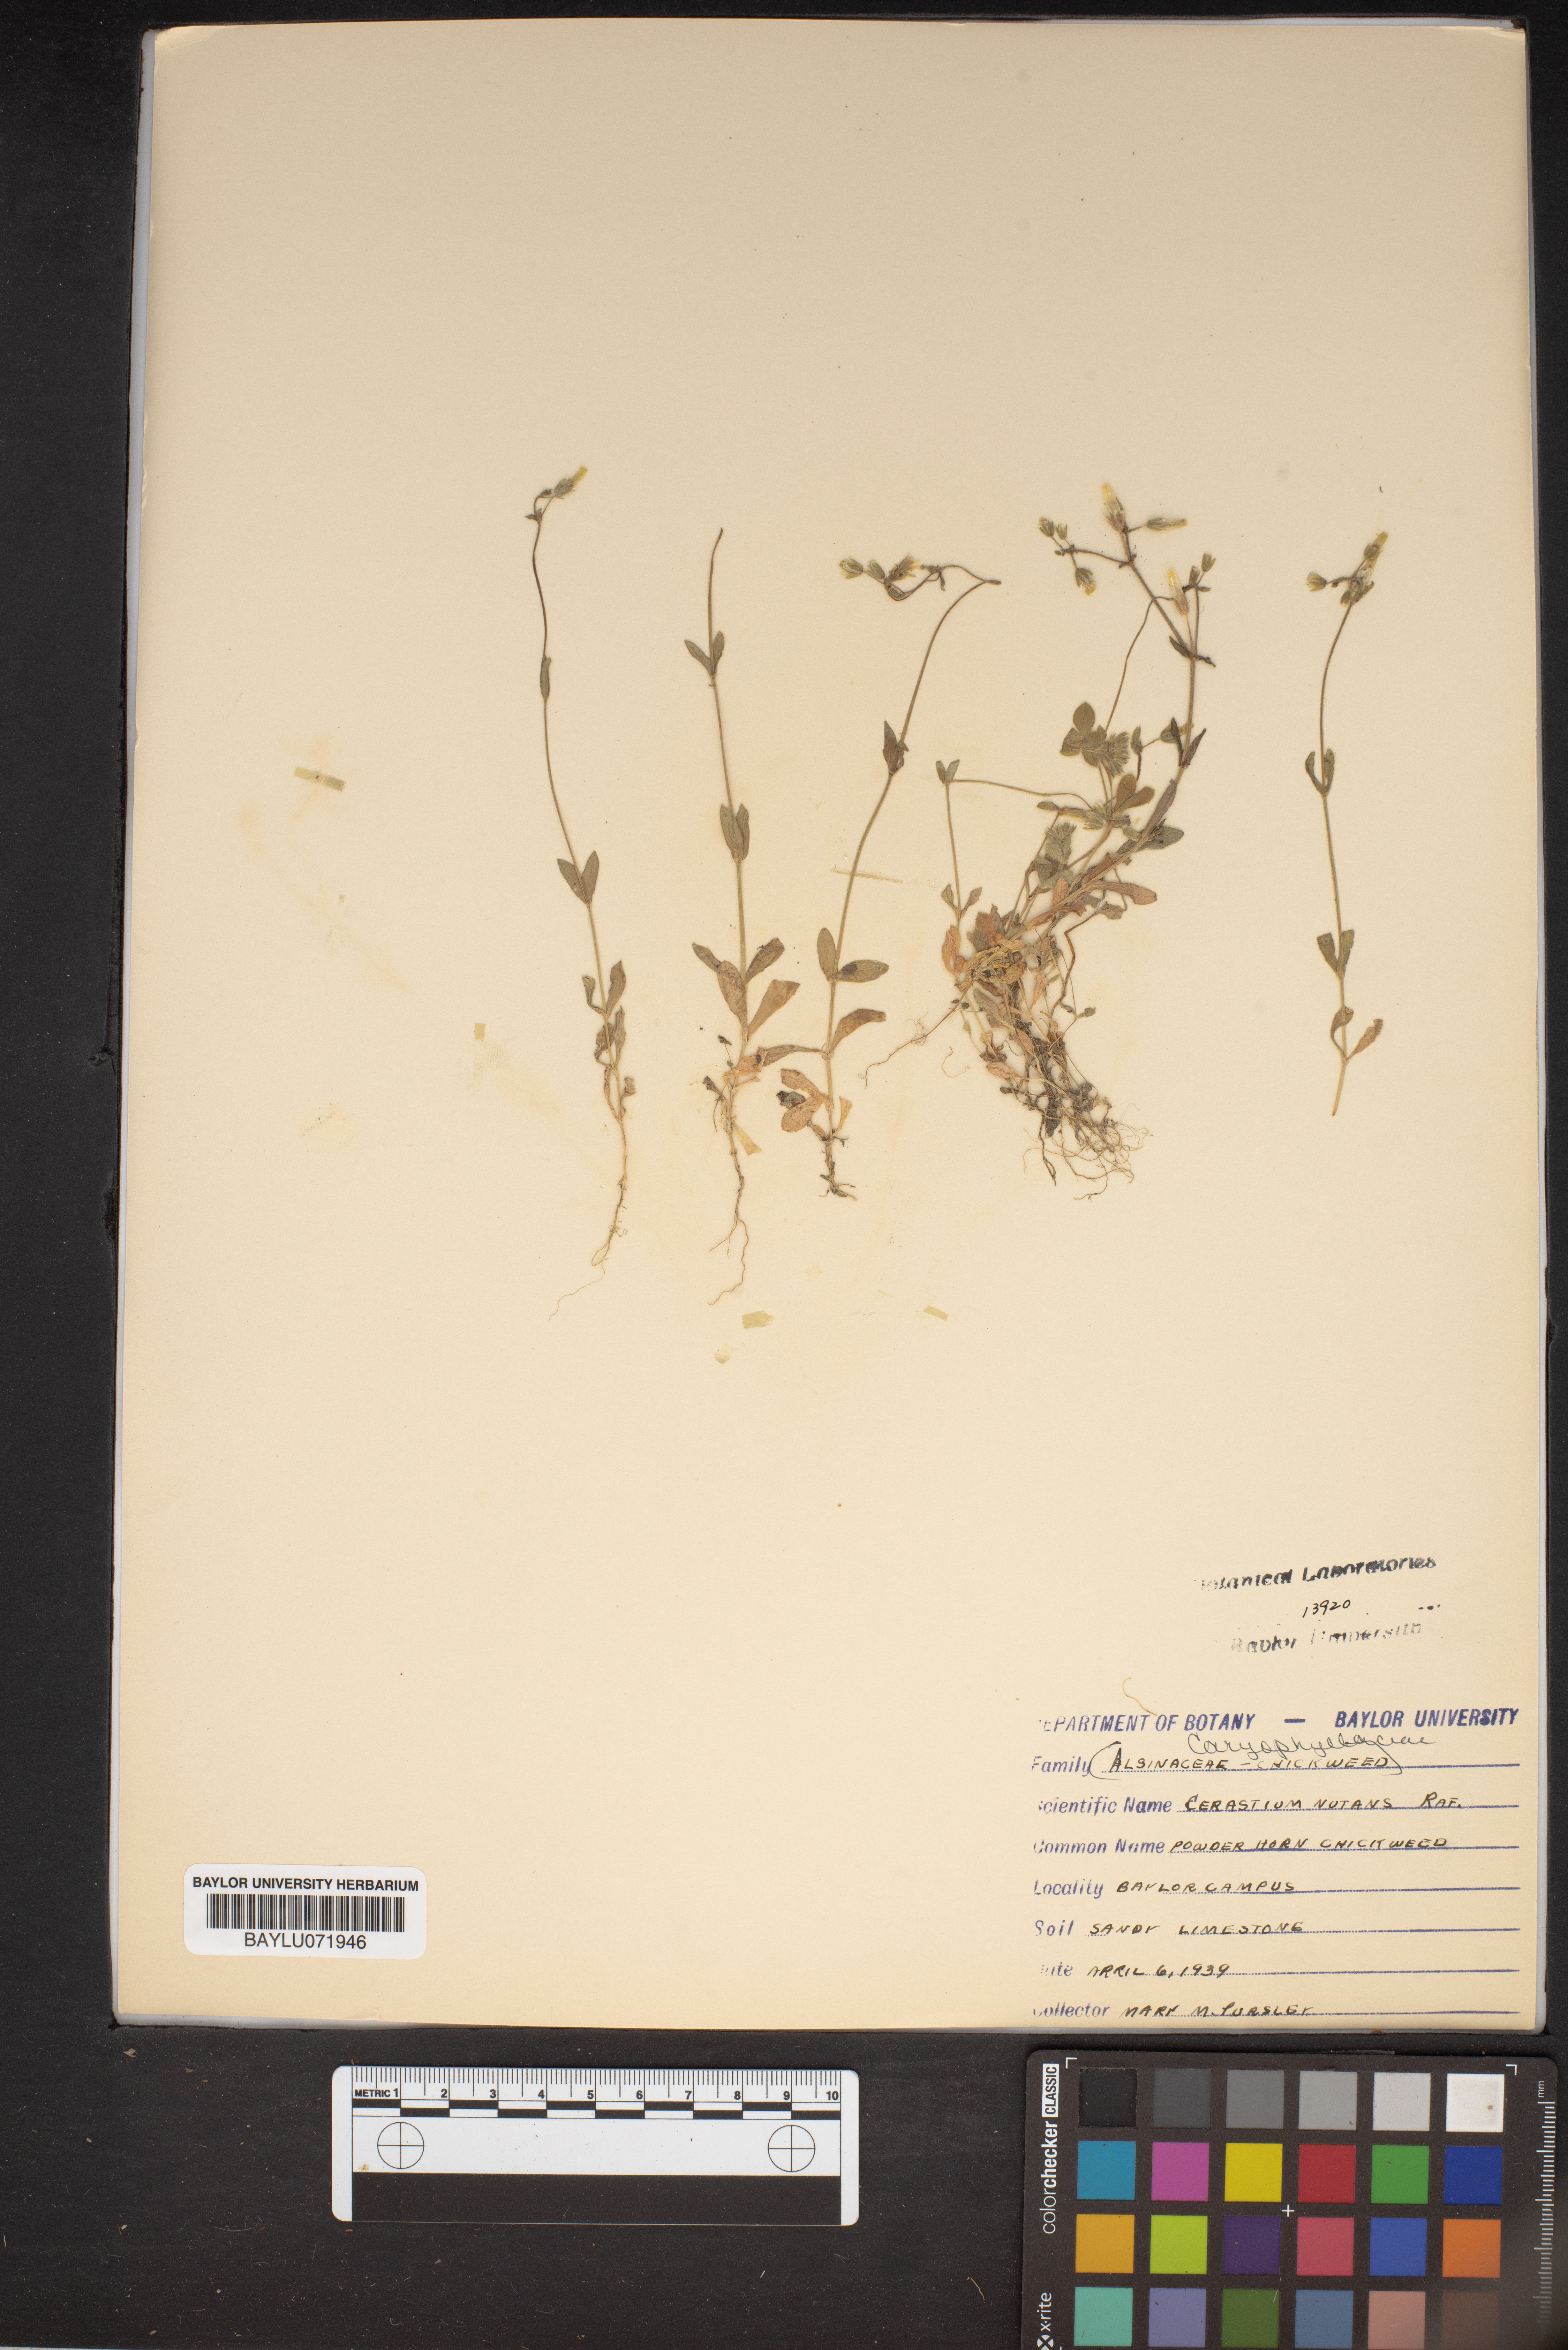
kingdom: Plantae
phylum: Tracheophyta
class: Magnoliopsida
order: Caryophyllales
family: Caryophyllaceae
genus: Cerastium
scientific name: Cerastium nutans
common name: Long-stalked chickweed
